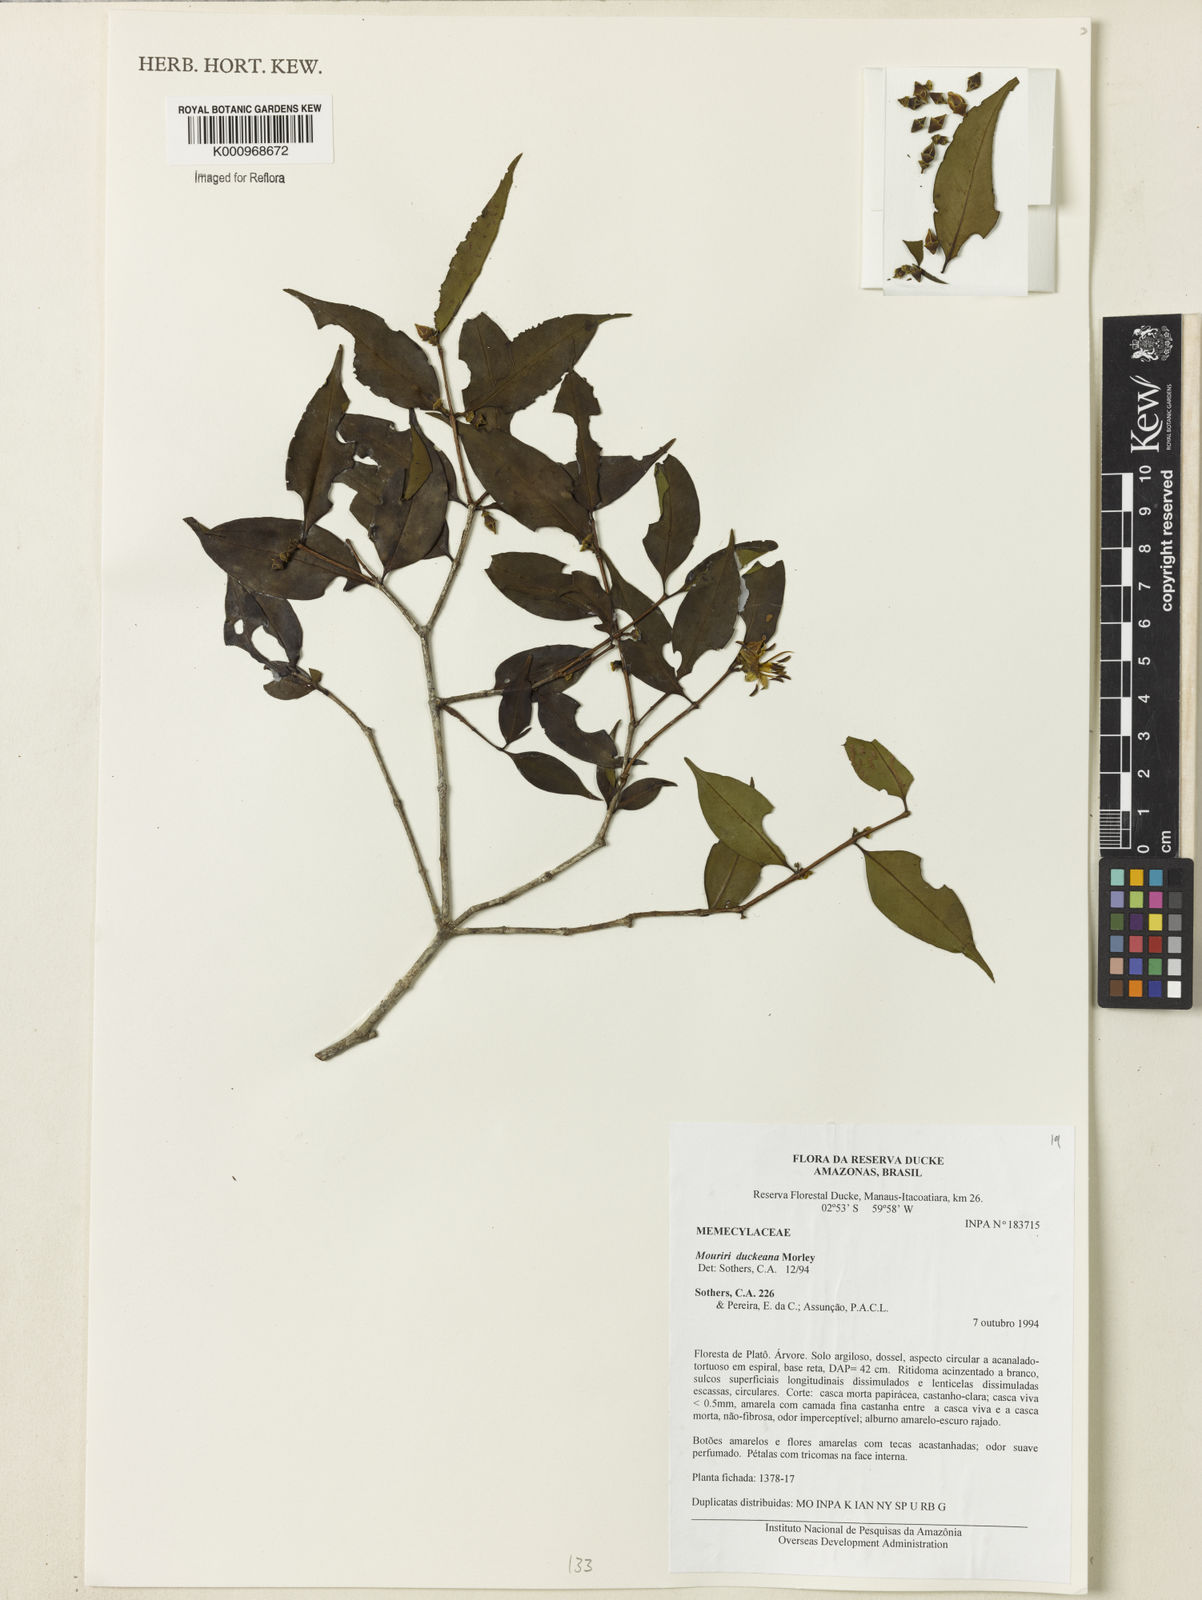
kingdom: Plantae
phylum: Tracheophyta
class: Magnoliopsida
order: Myrtales
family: Melastomataceae
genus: Mouriri
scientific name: Mouriri duckeana
